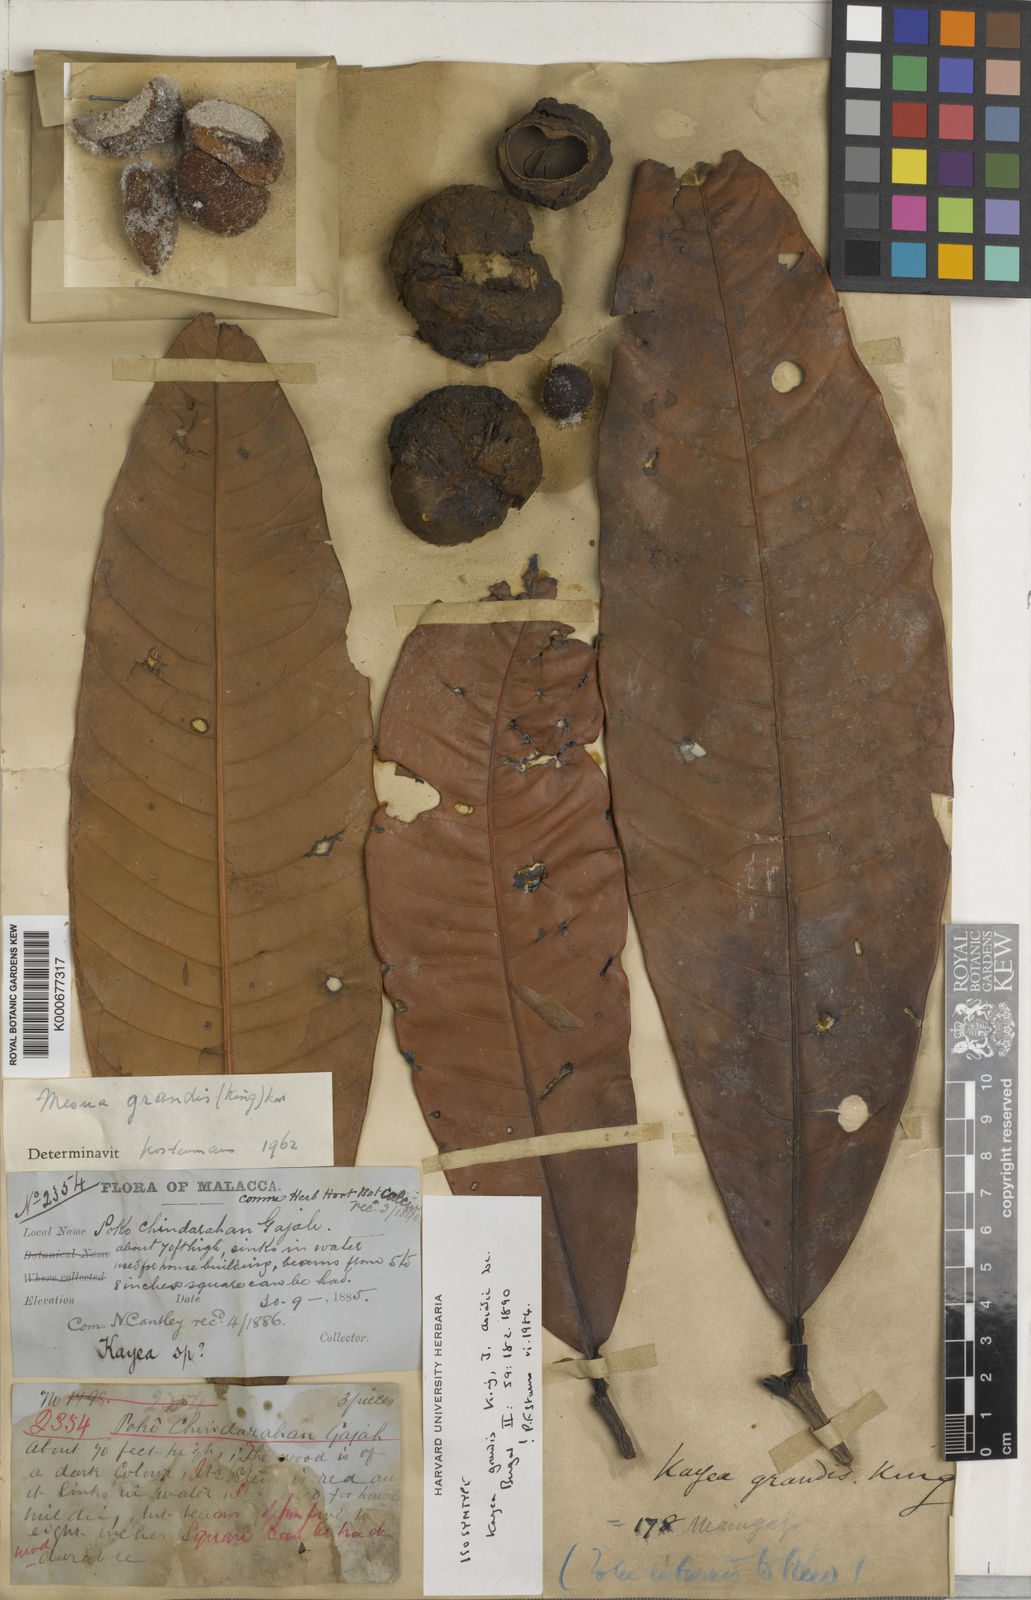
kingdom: Plantae
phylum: Tracheophyta
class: Magnoliopsida
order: Malpighiales
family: Calophyllaceae
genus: Kayea
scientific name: Kayea grandis
